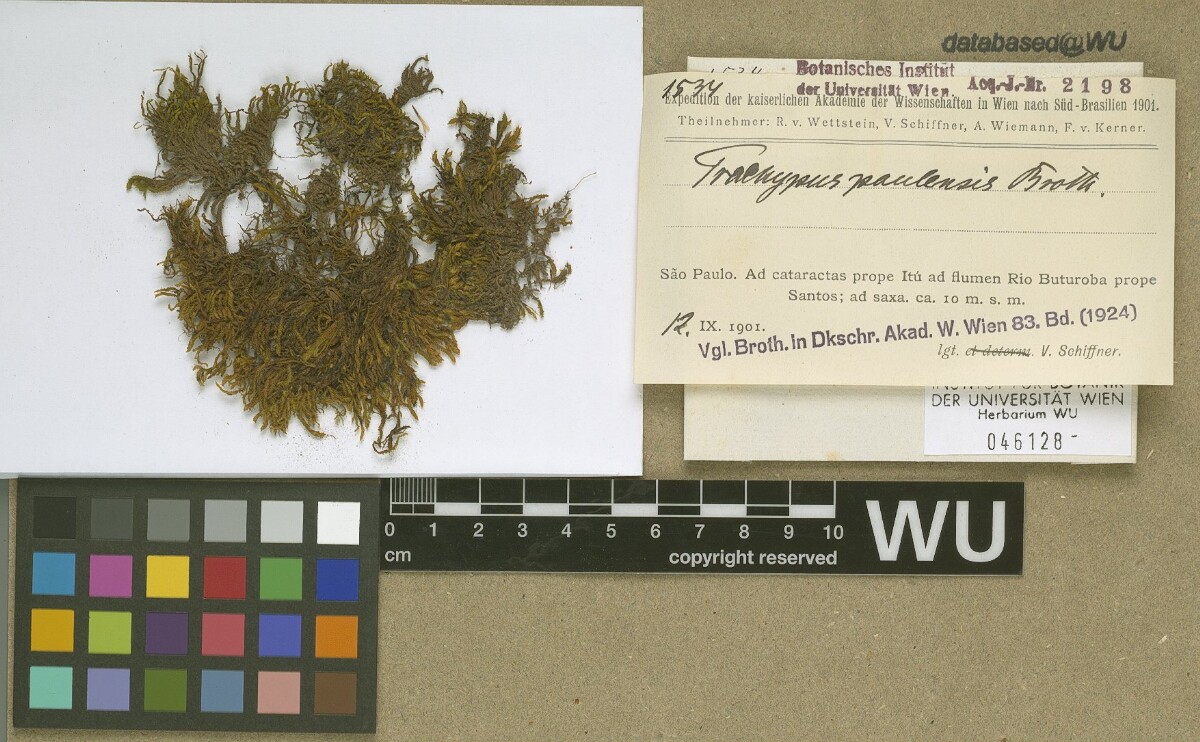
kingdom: Plantae
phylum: Bryophyta
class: Bryopsida
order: Hypnales
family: Meteoriaceae
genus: Trachypus
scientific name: Trachypus bicolor
